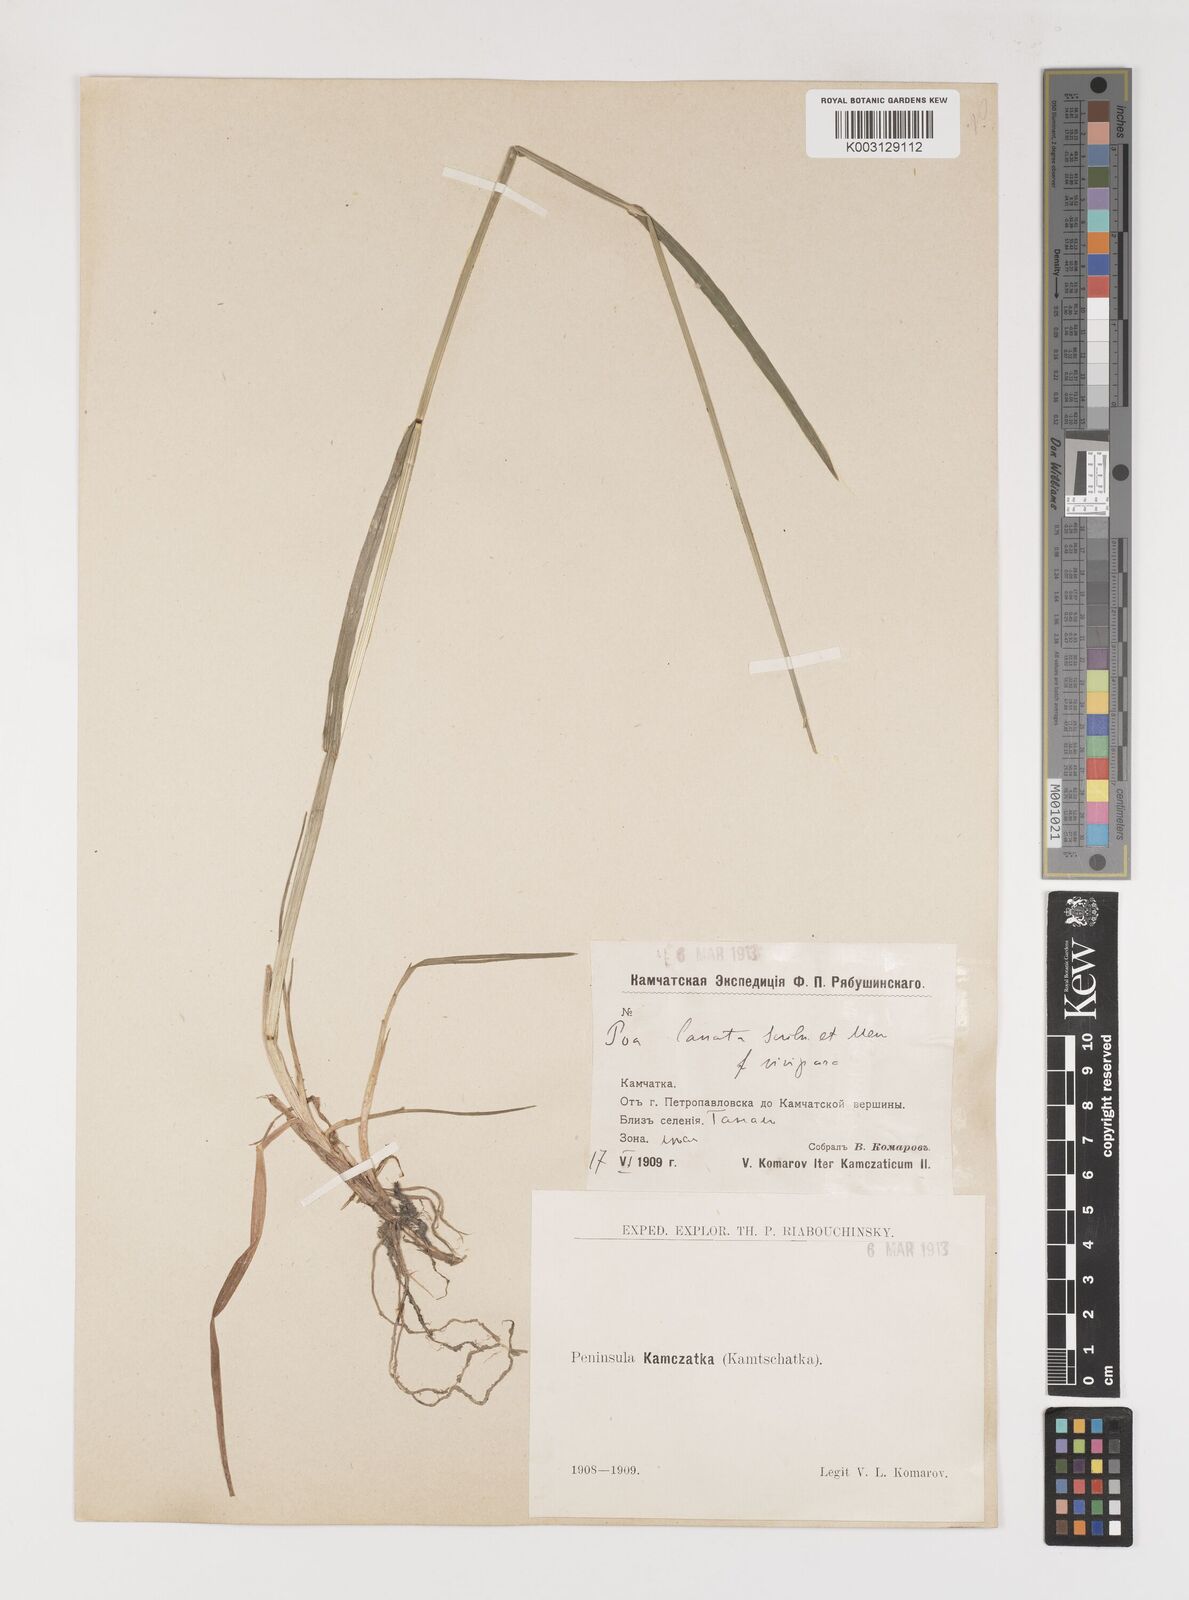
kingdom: Plantae
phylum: Tracheophyta
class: Liliopsida
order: Poales
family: Poaceae
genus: Poa
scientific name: Poa arctica
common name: Arctic bluegrass
